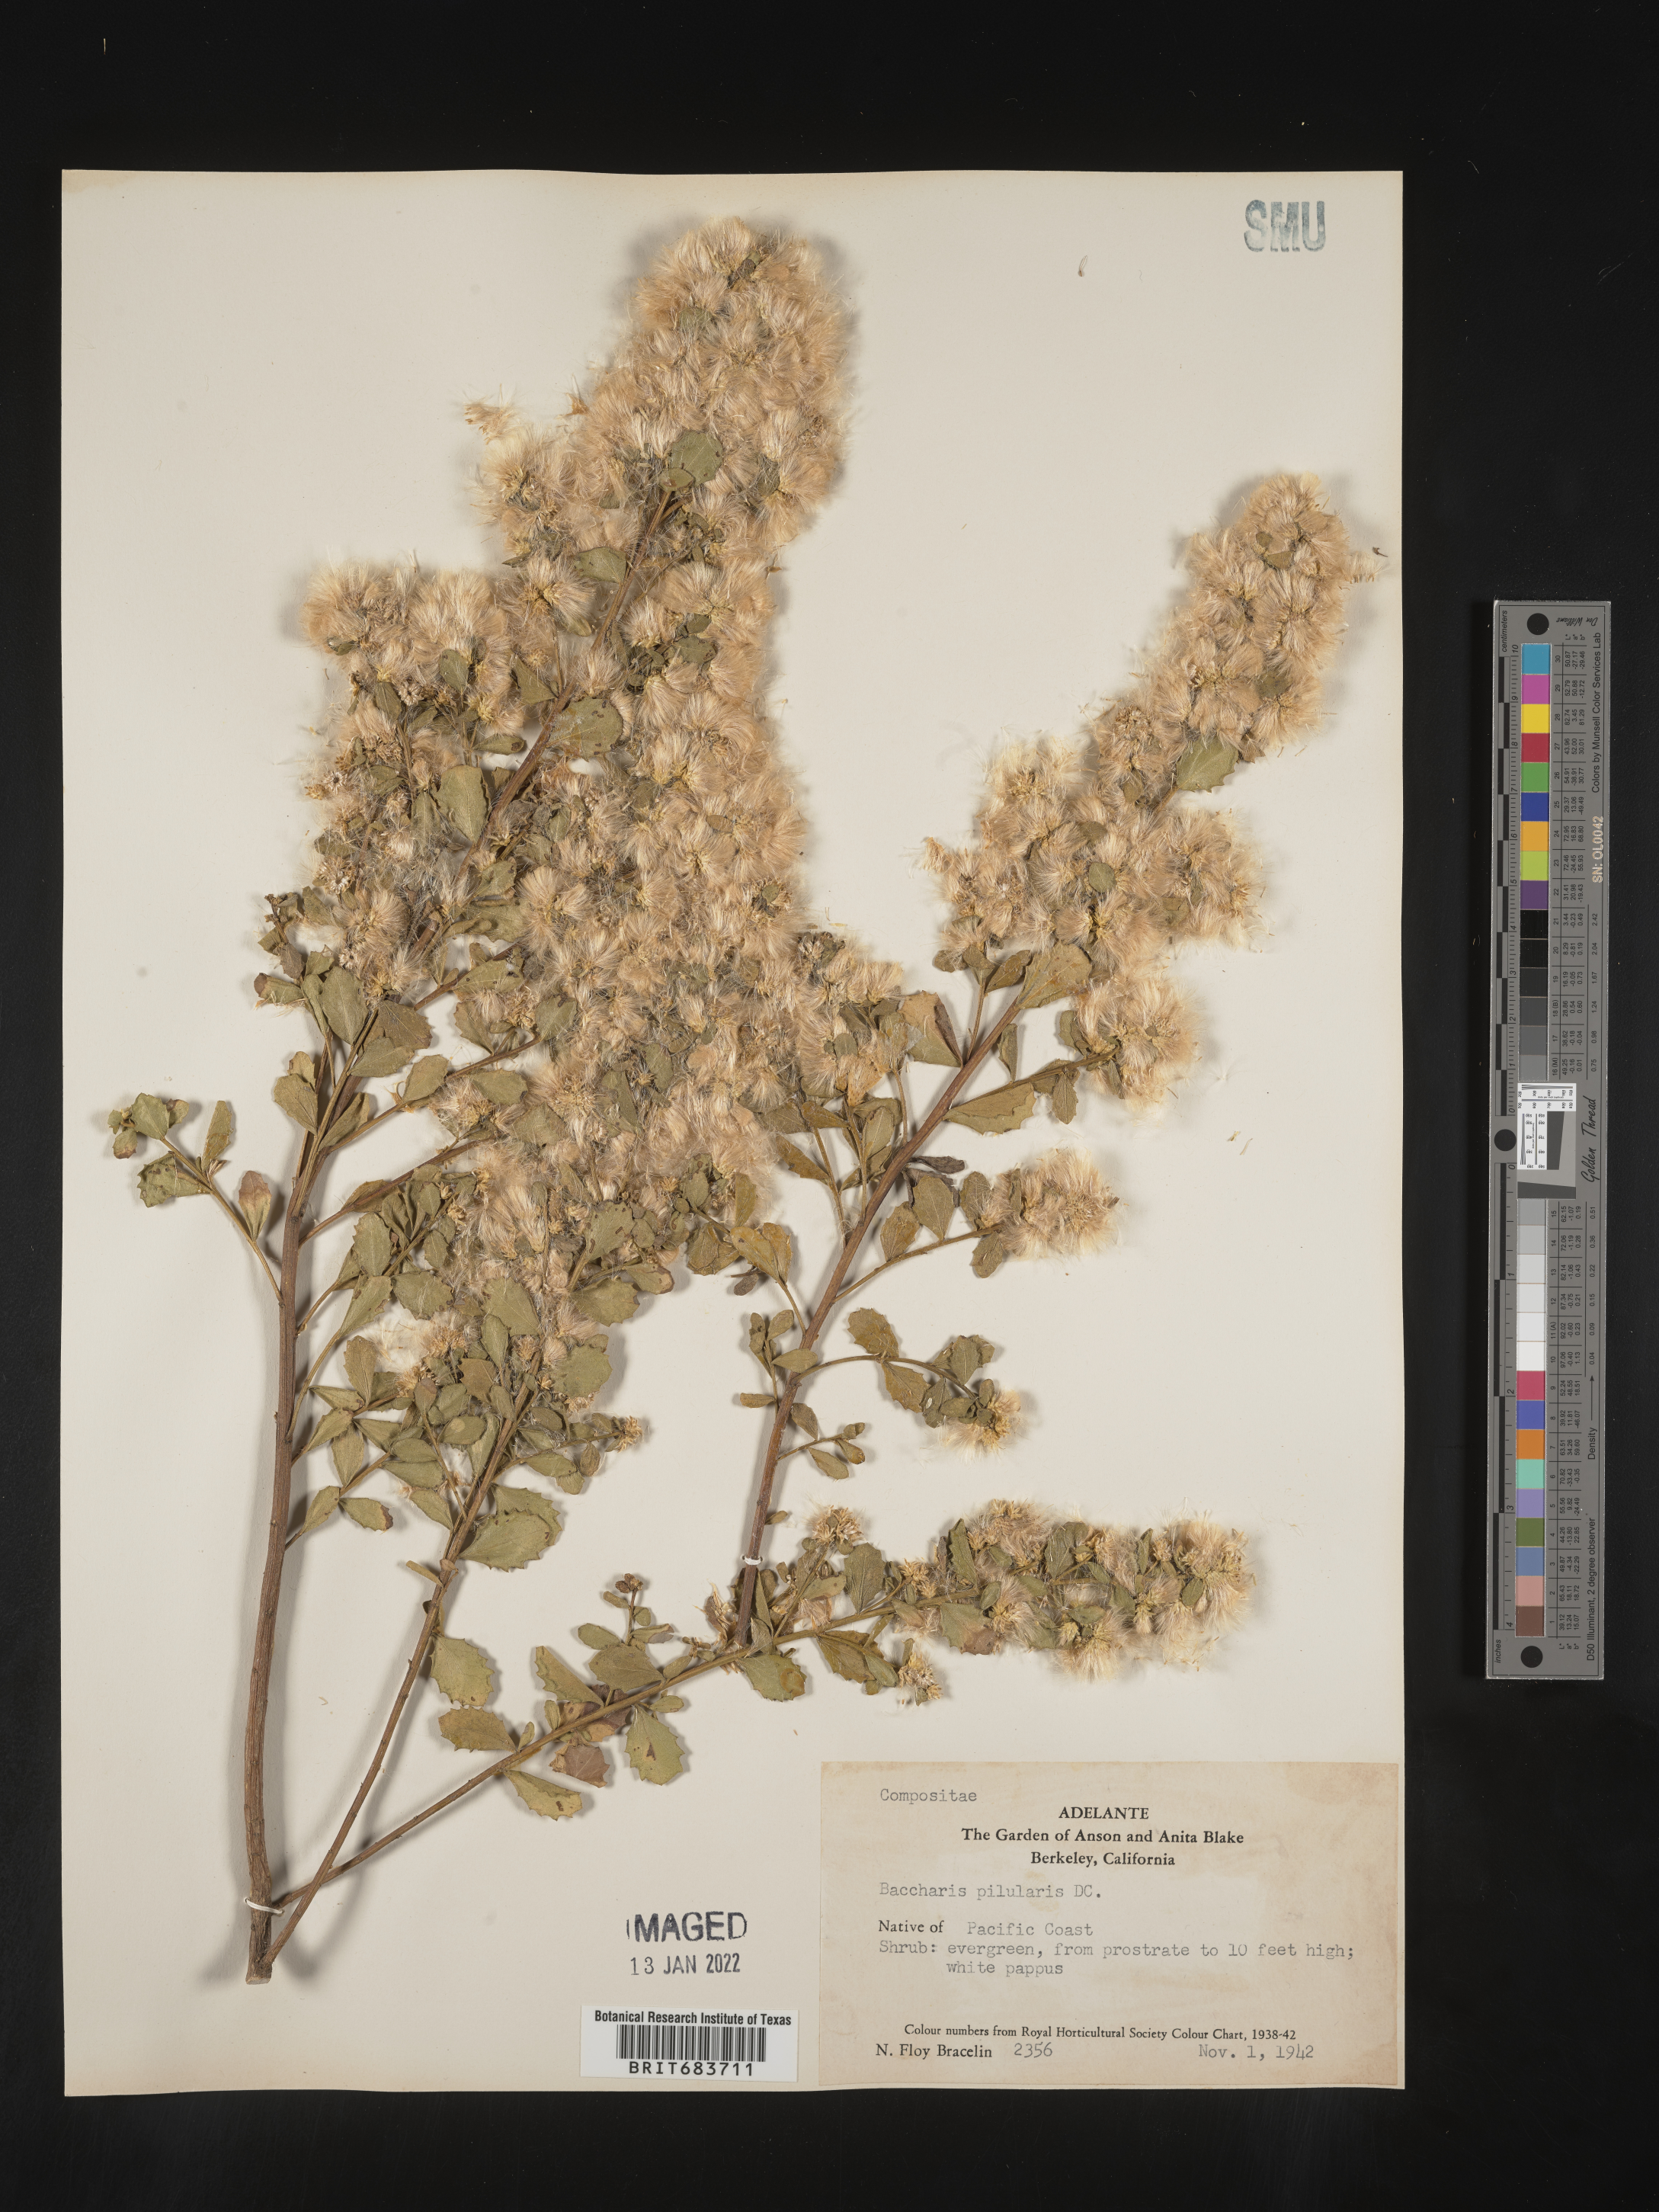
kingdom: Plantae
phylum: Tracheophyta
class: Magnoliopsida
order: Asterales
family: Asteraceae
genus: Baccharis
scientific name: Baccharis
